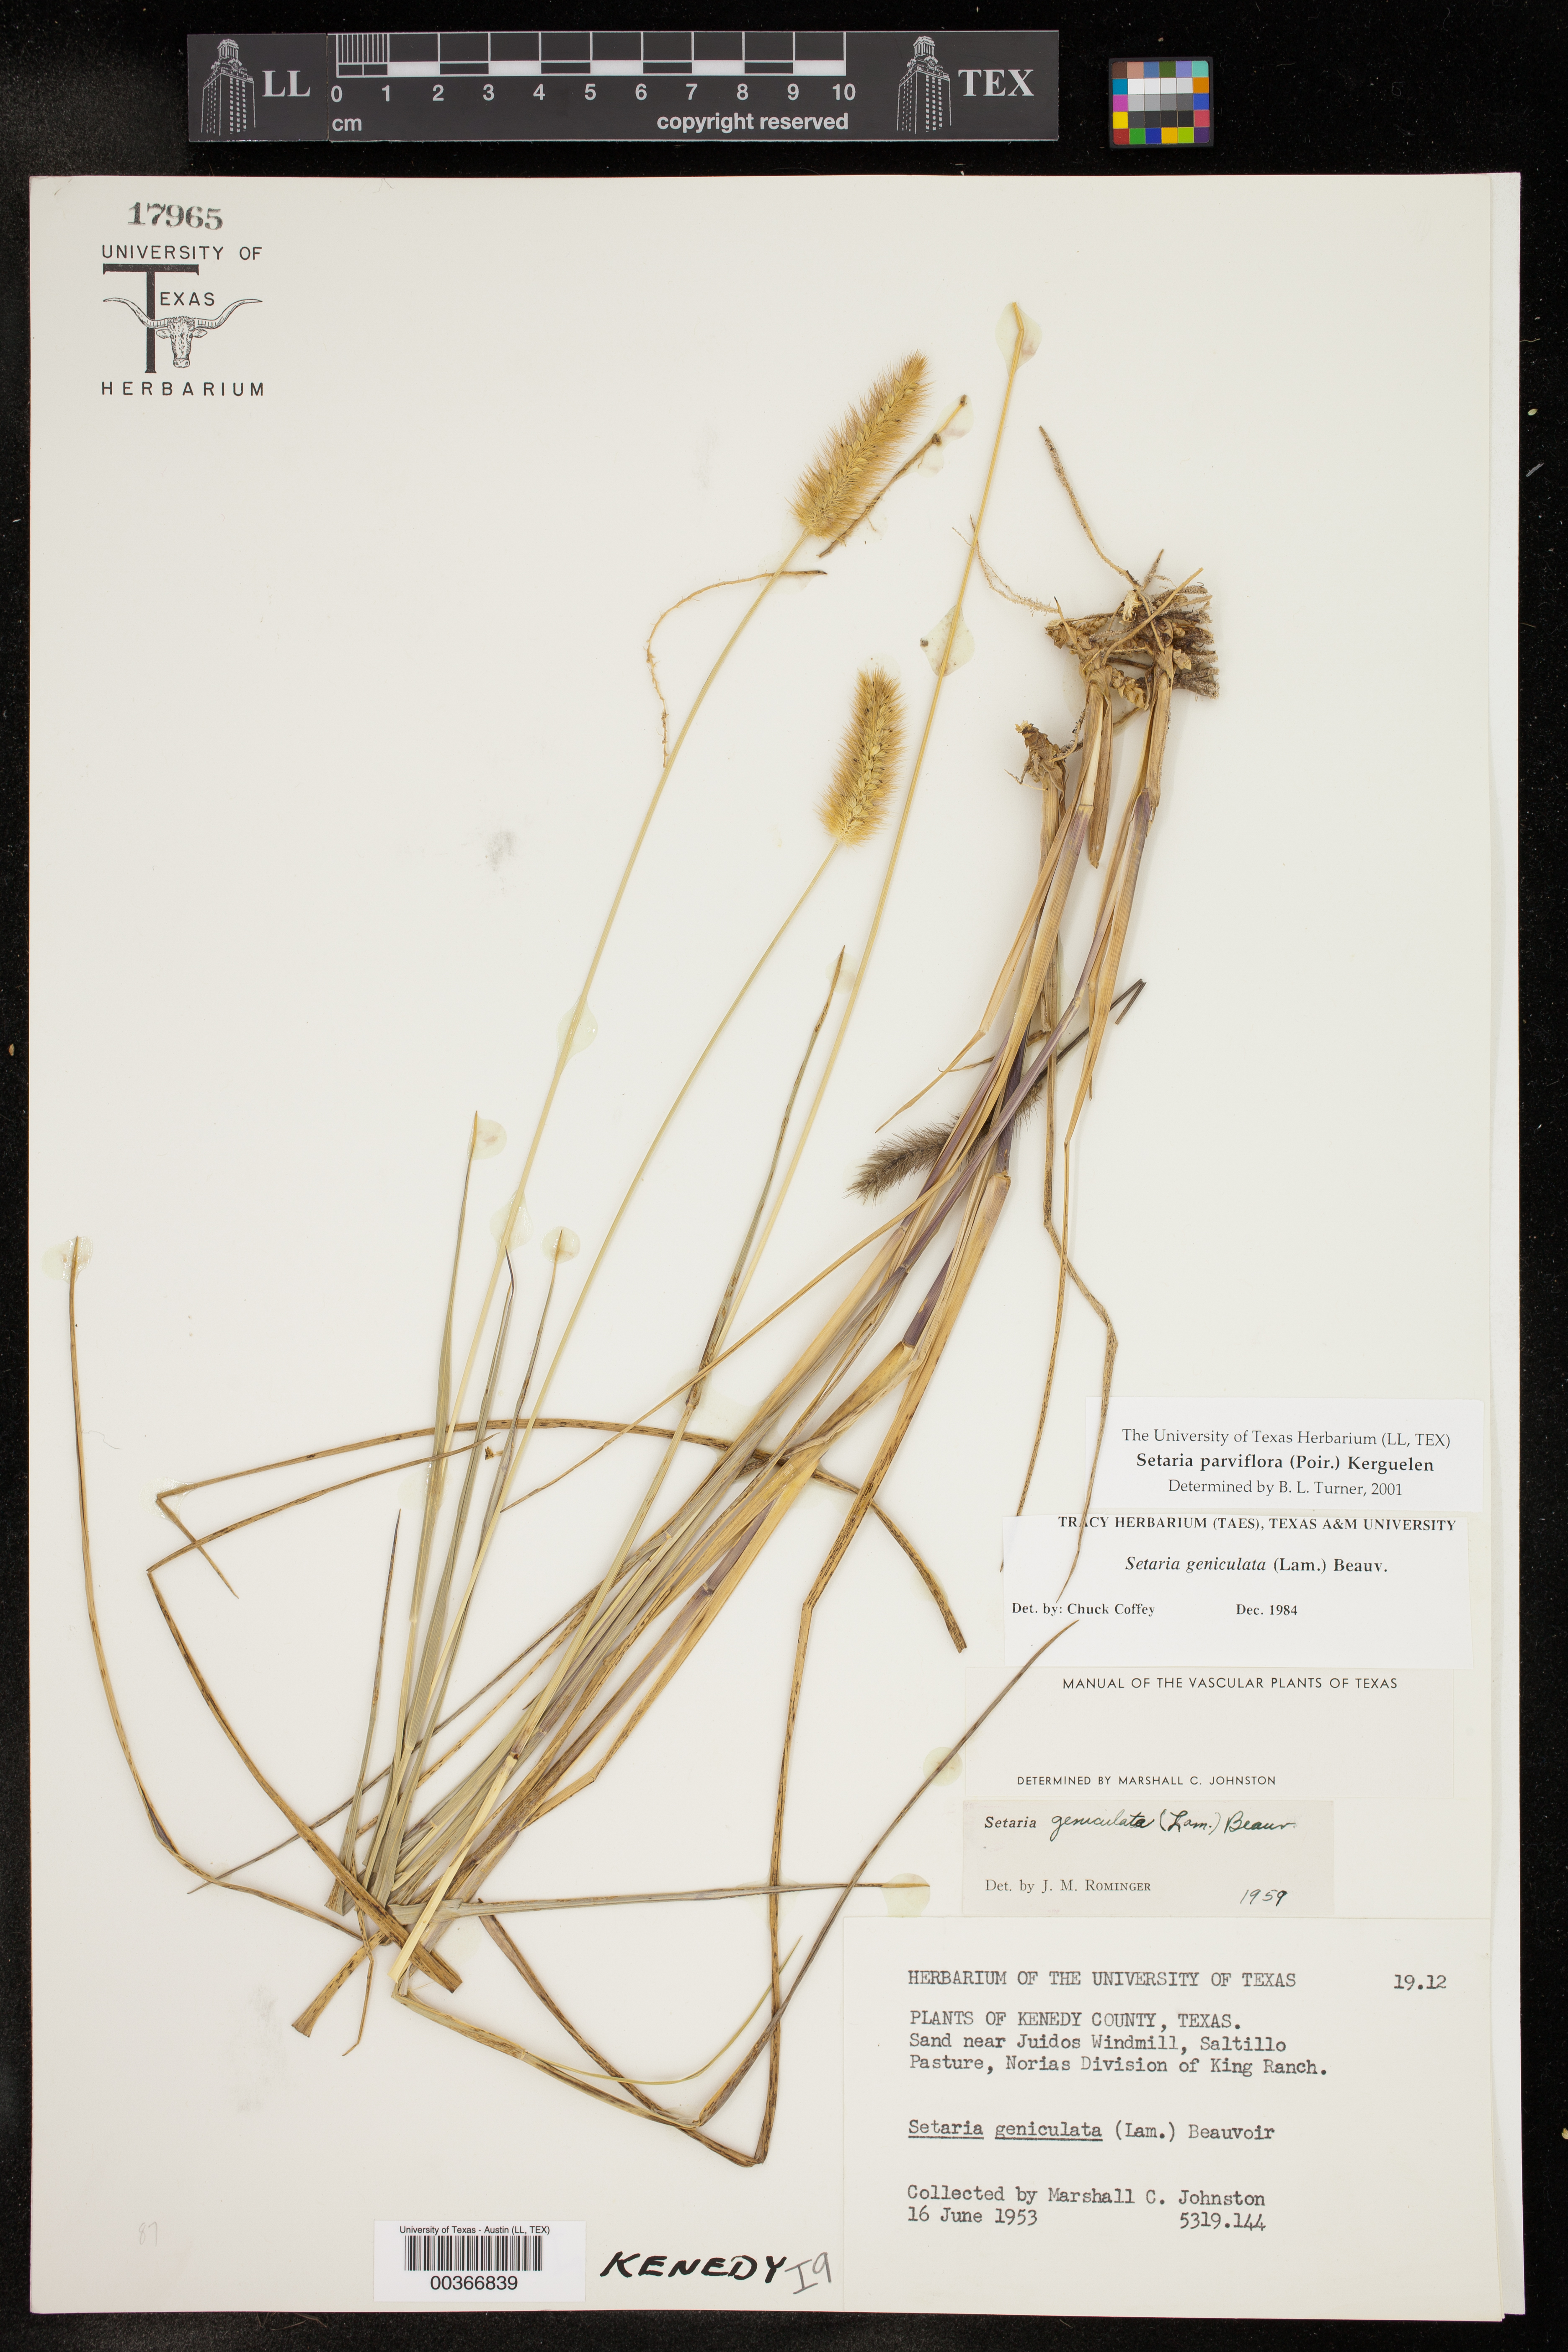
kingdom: Plantae
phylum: Tracheophyta
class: Liliopsida
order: Poales
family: Poaceae
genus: Setaria
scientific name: Setaria parviflora
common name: Knotroot bristle-grass
